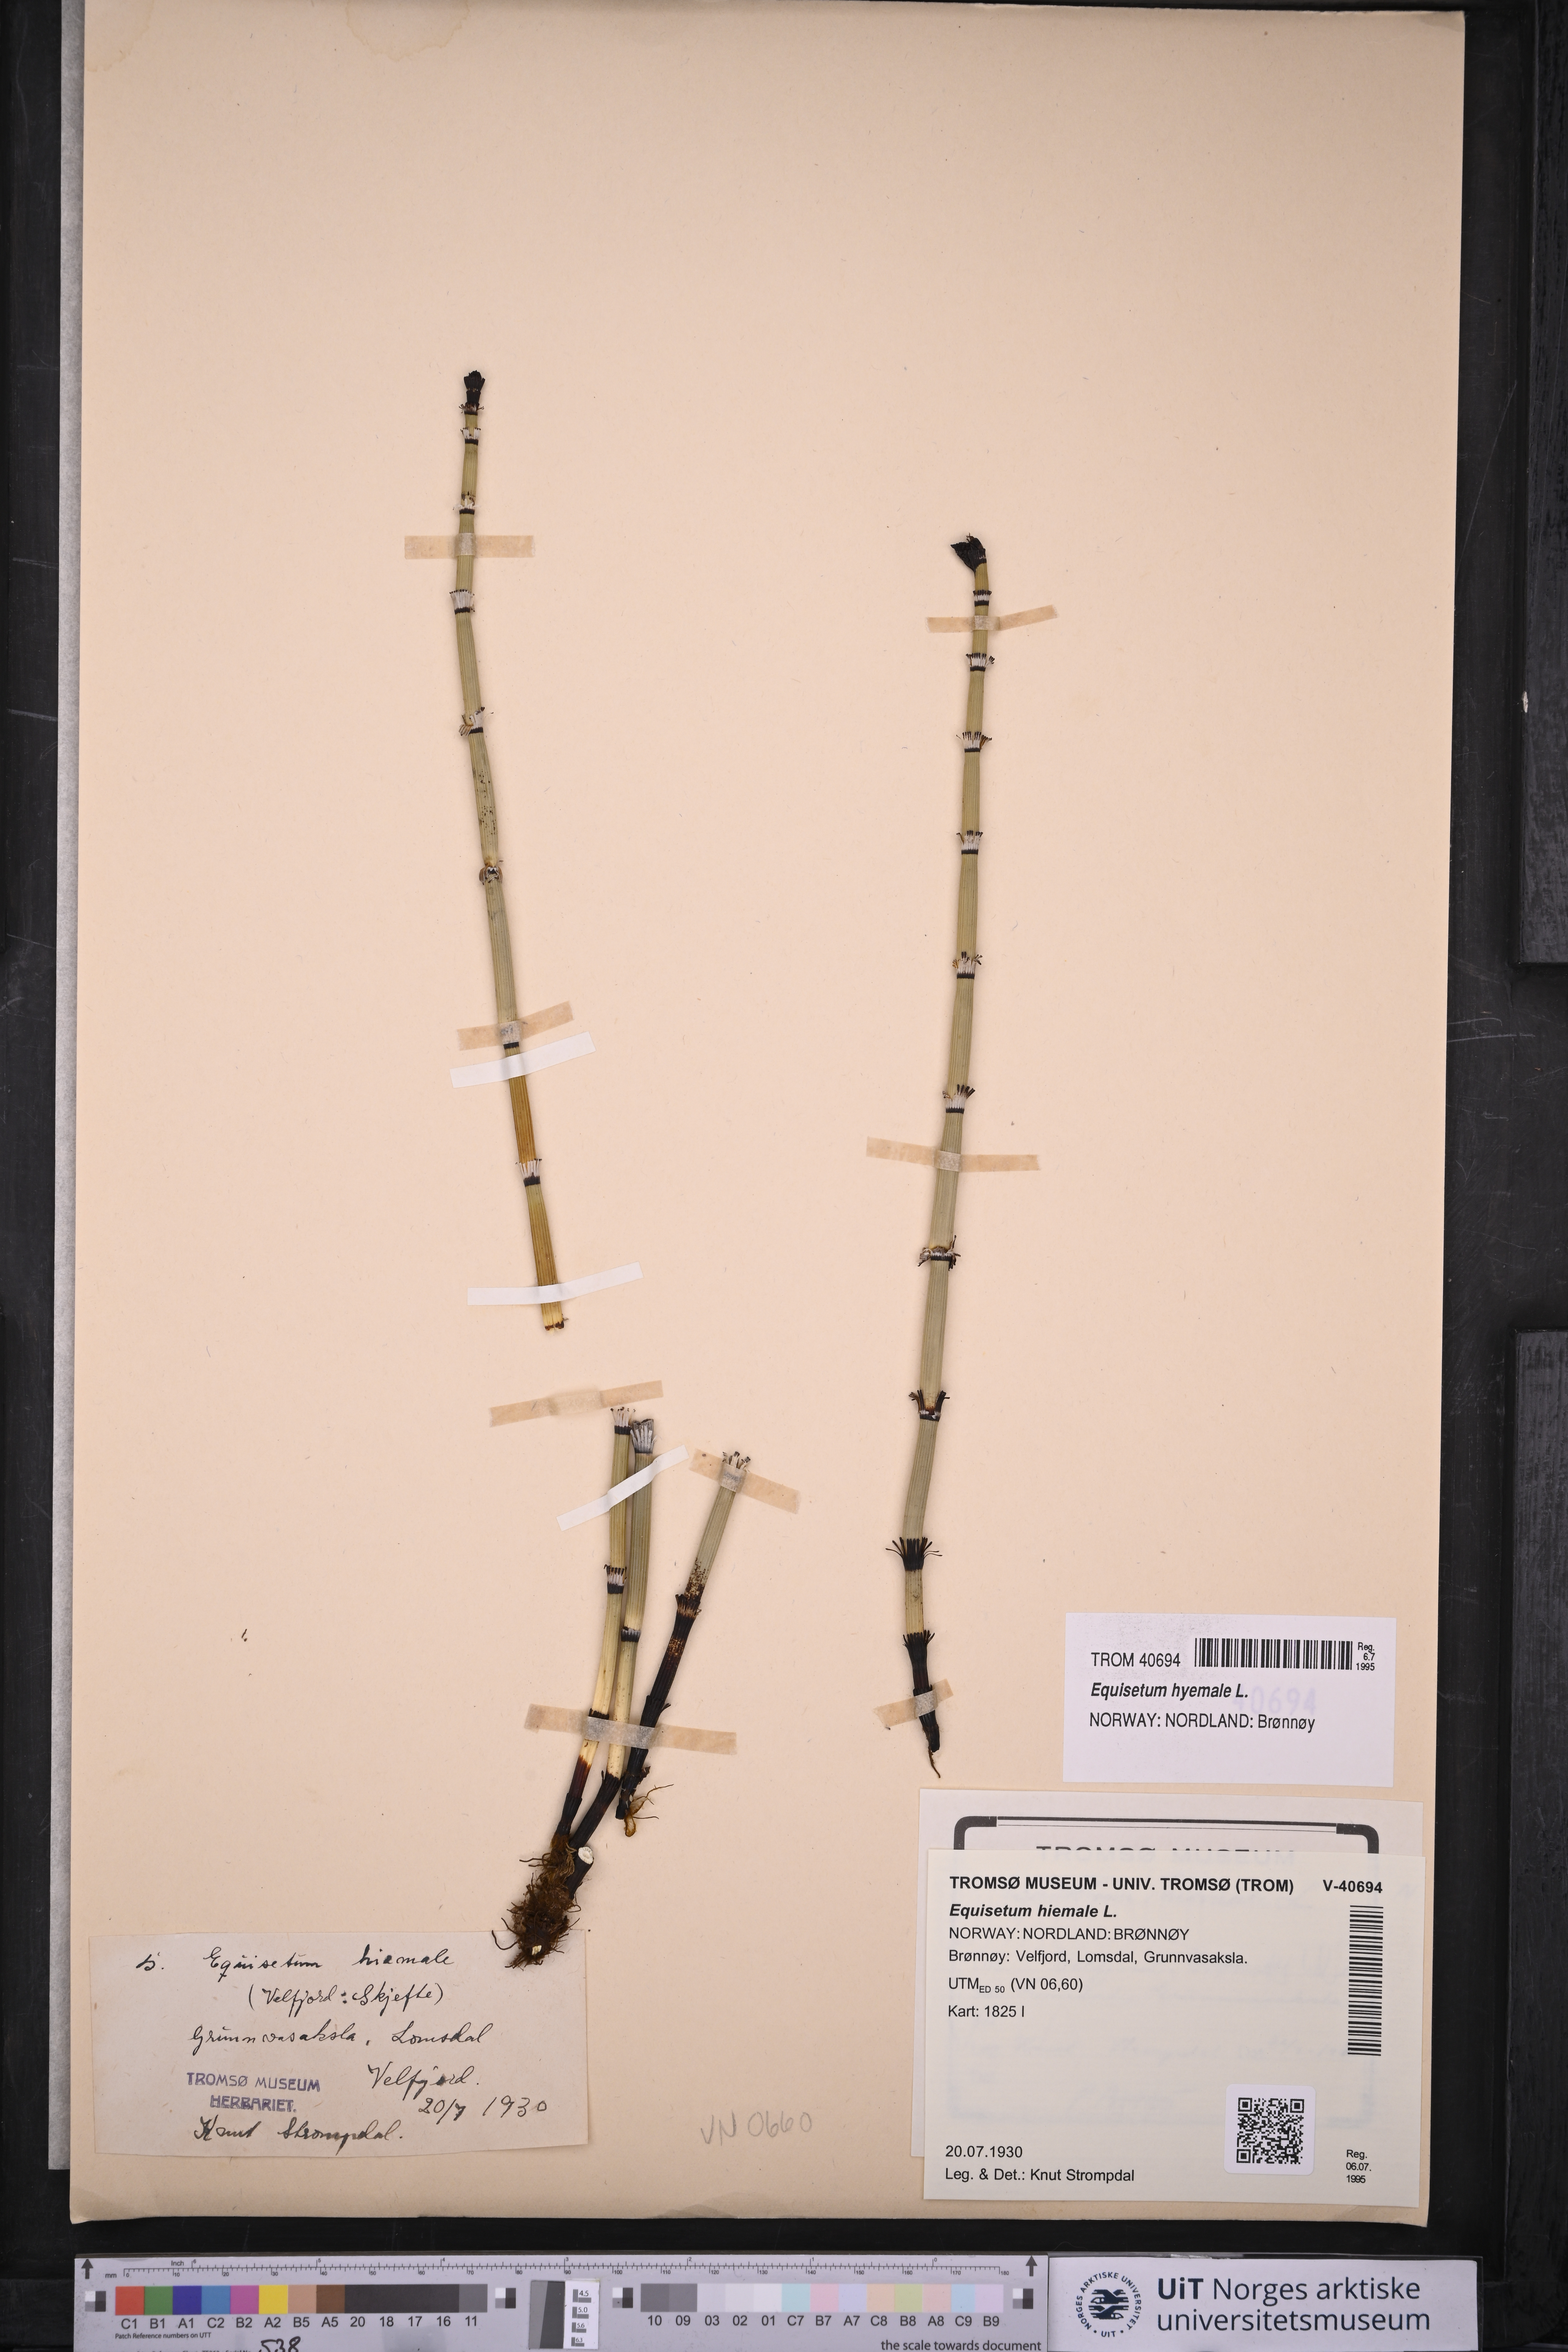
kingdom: Plantae
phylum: Tracheophyta
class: Polypodiopsida
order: Equisetales
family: Equisetaceae
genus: Equisetum
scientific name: Equisetum hyemale
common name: Rough horsetail
